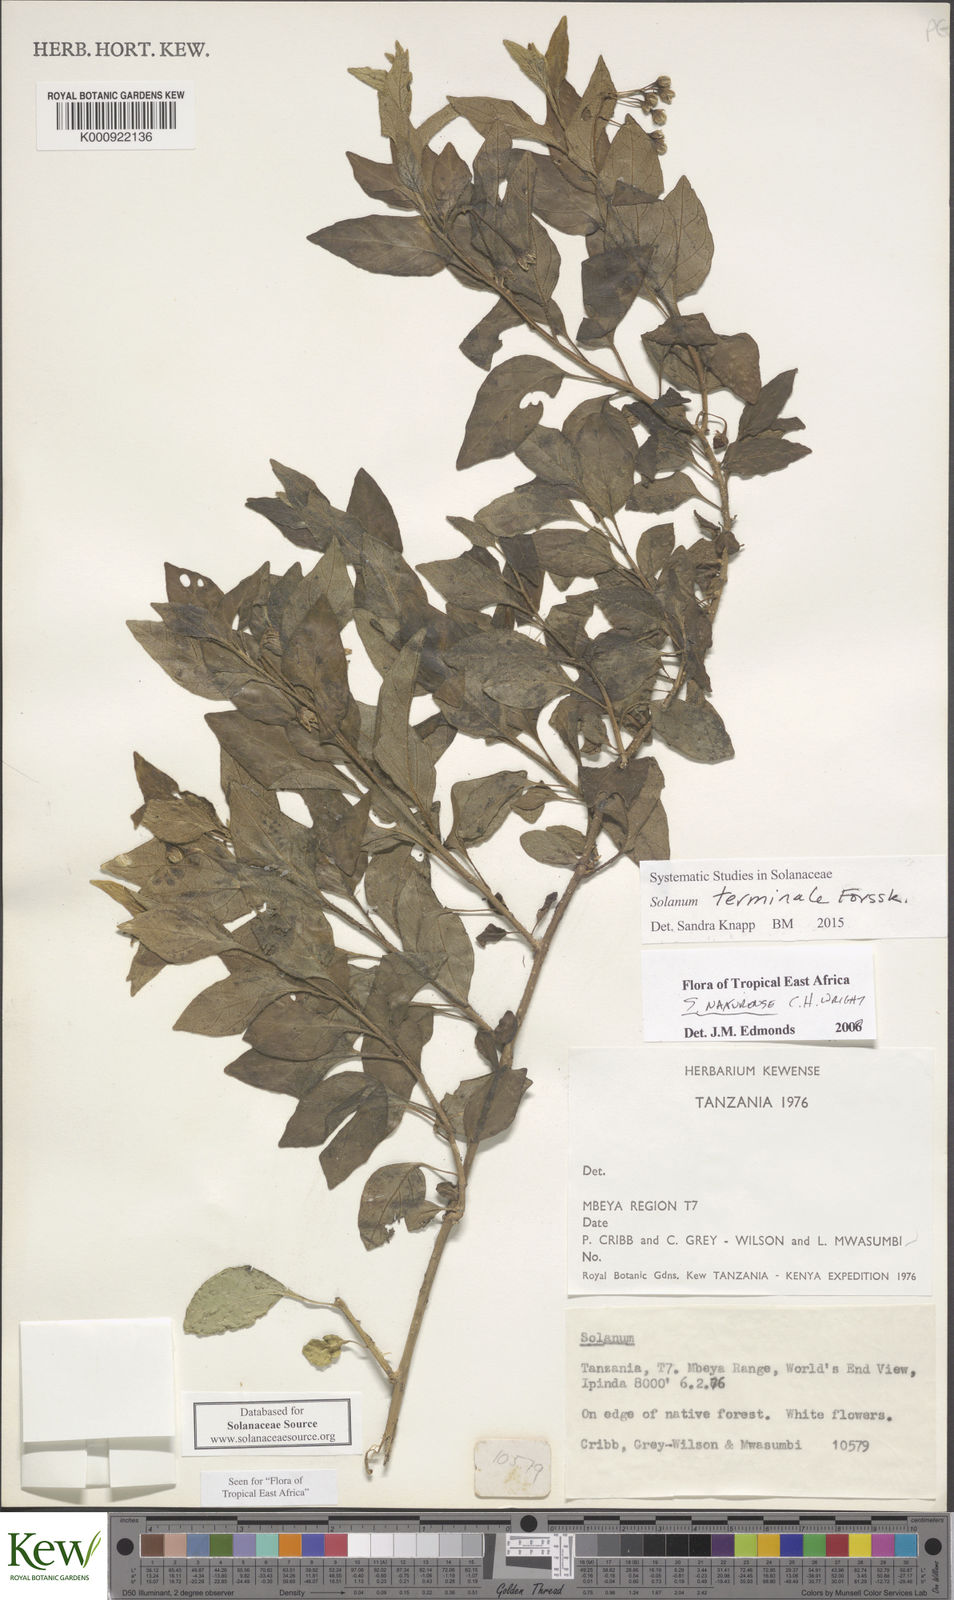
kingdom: Plantae
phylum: Tracheophyta
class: Magnoliopsida
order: Solanales
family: Solanaceae
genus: Solanum
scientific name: Solanum terminale
